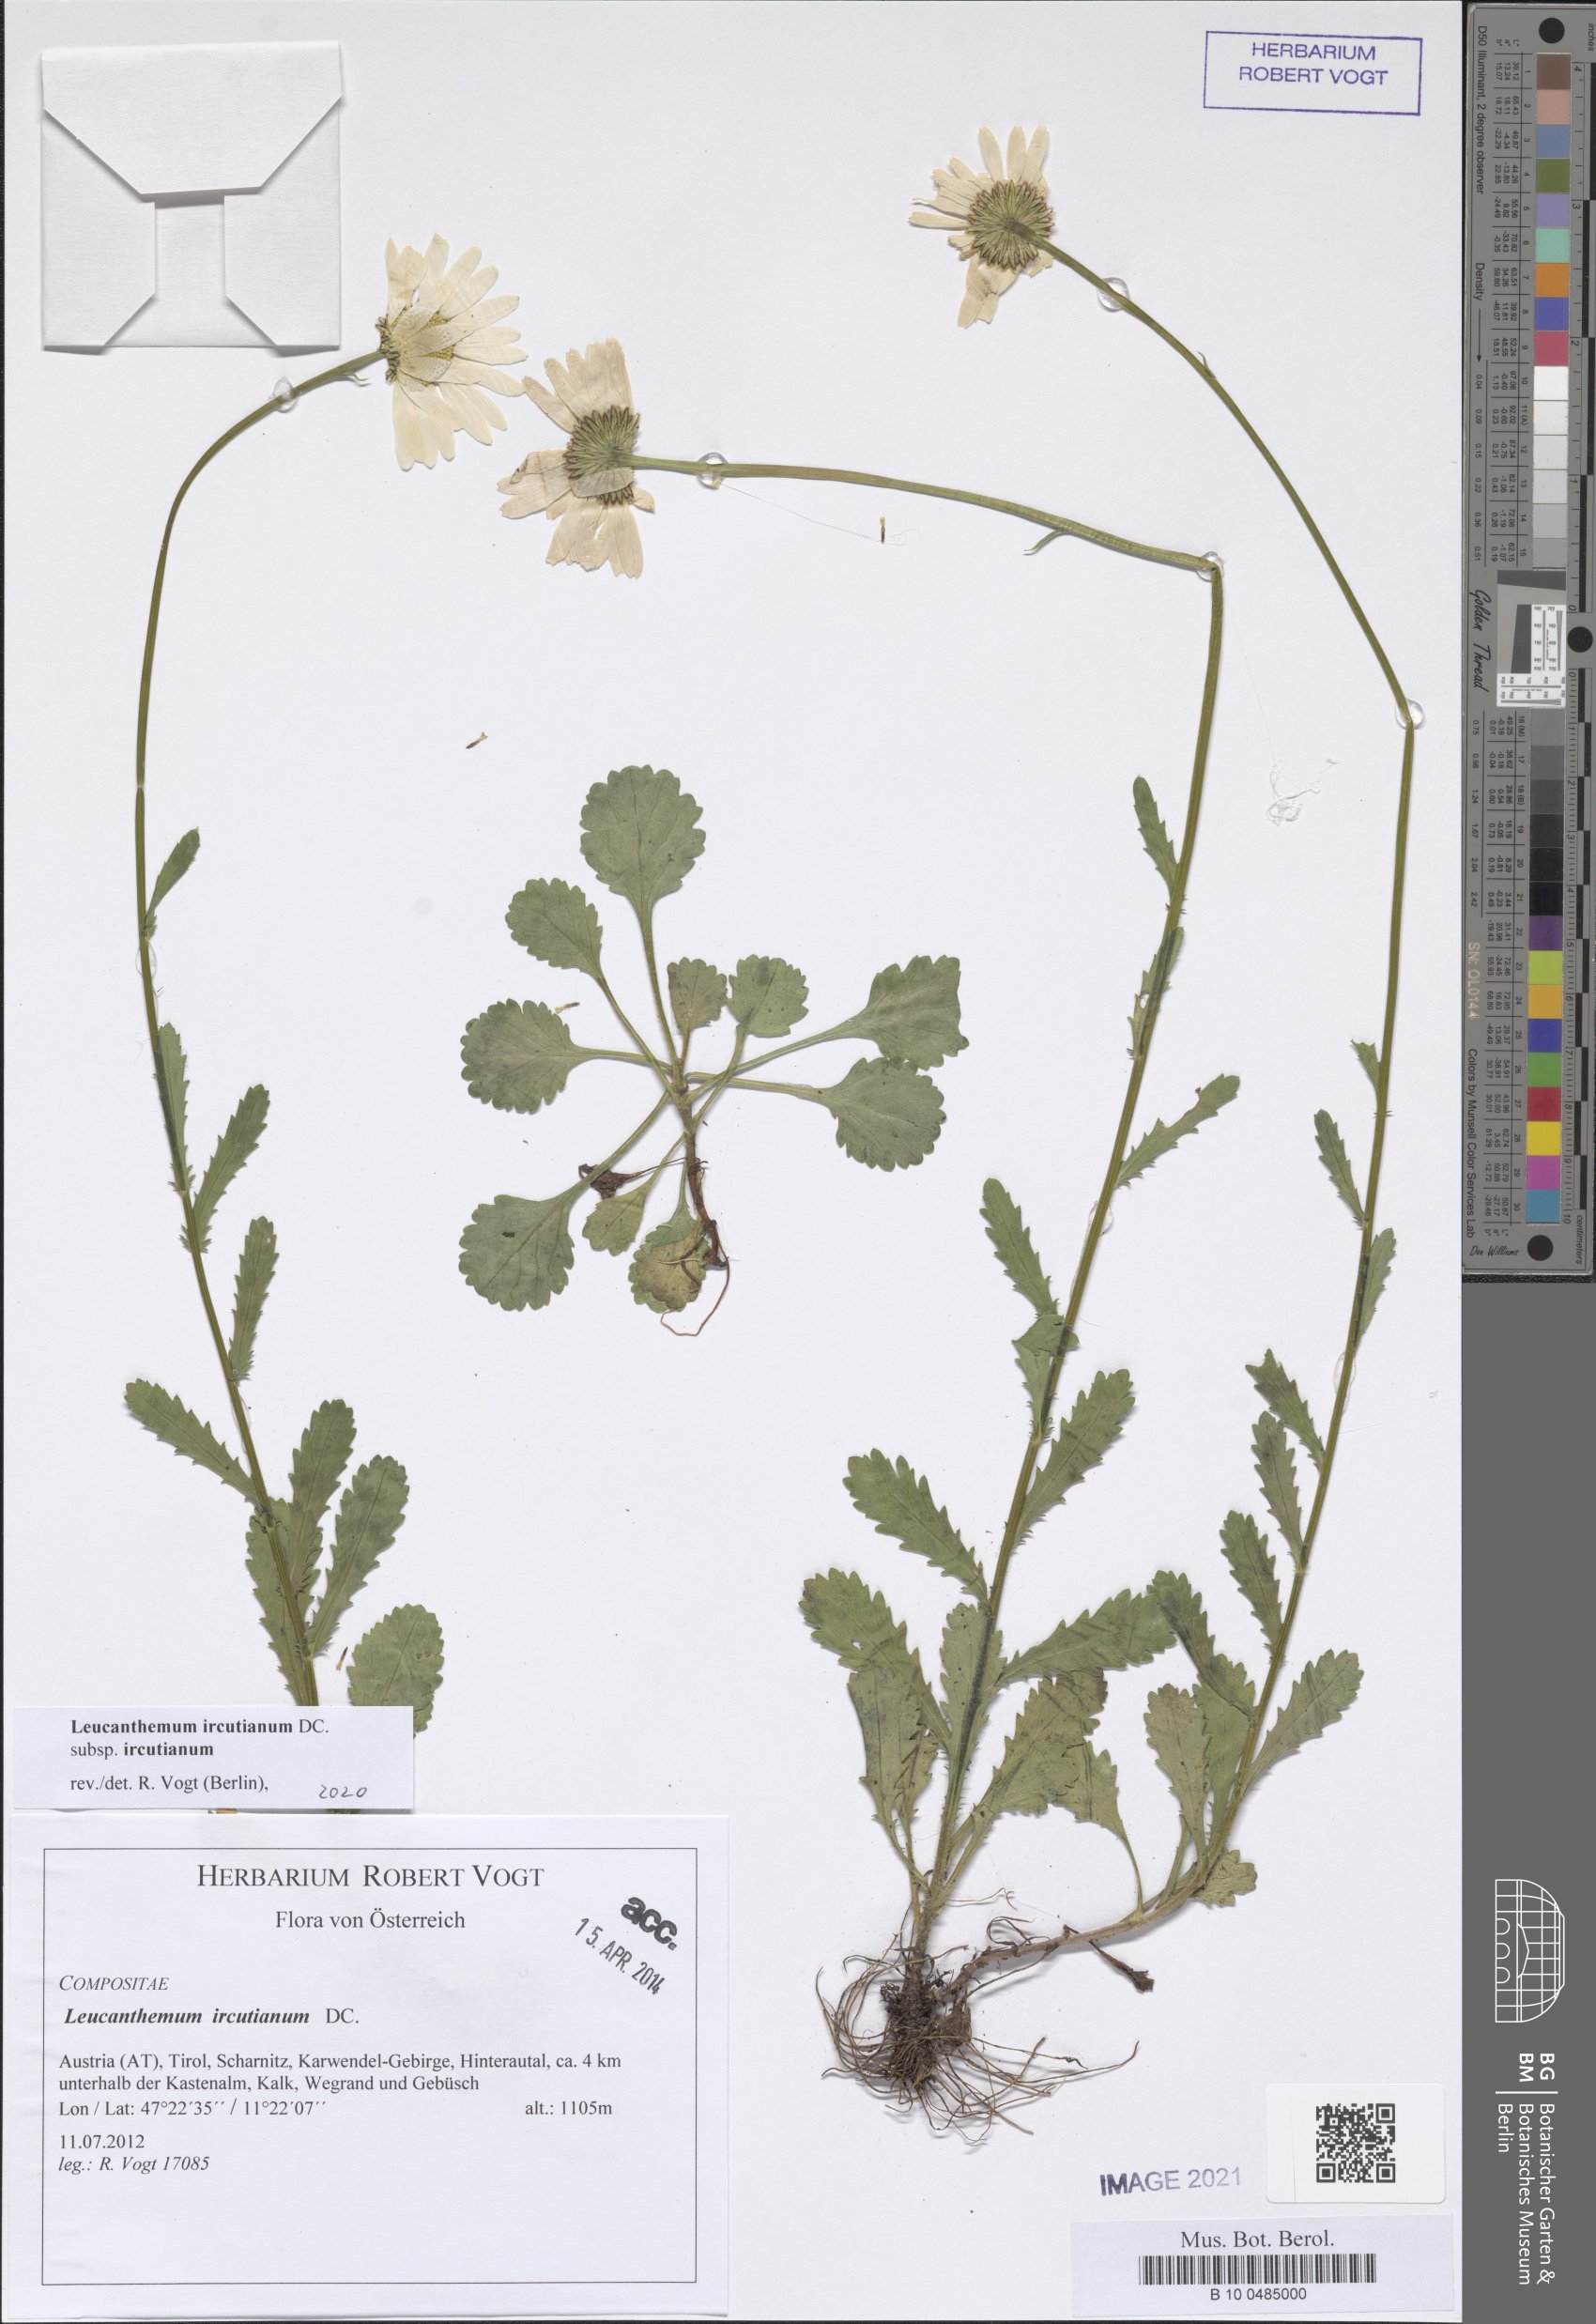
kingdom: Plantae
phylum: Tracheophyta
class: Magnoliopsida
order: Asterales
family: Asteraceae
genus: Leucanthemum
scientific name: Leucanthemum ircutianum
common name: Daisy
